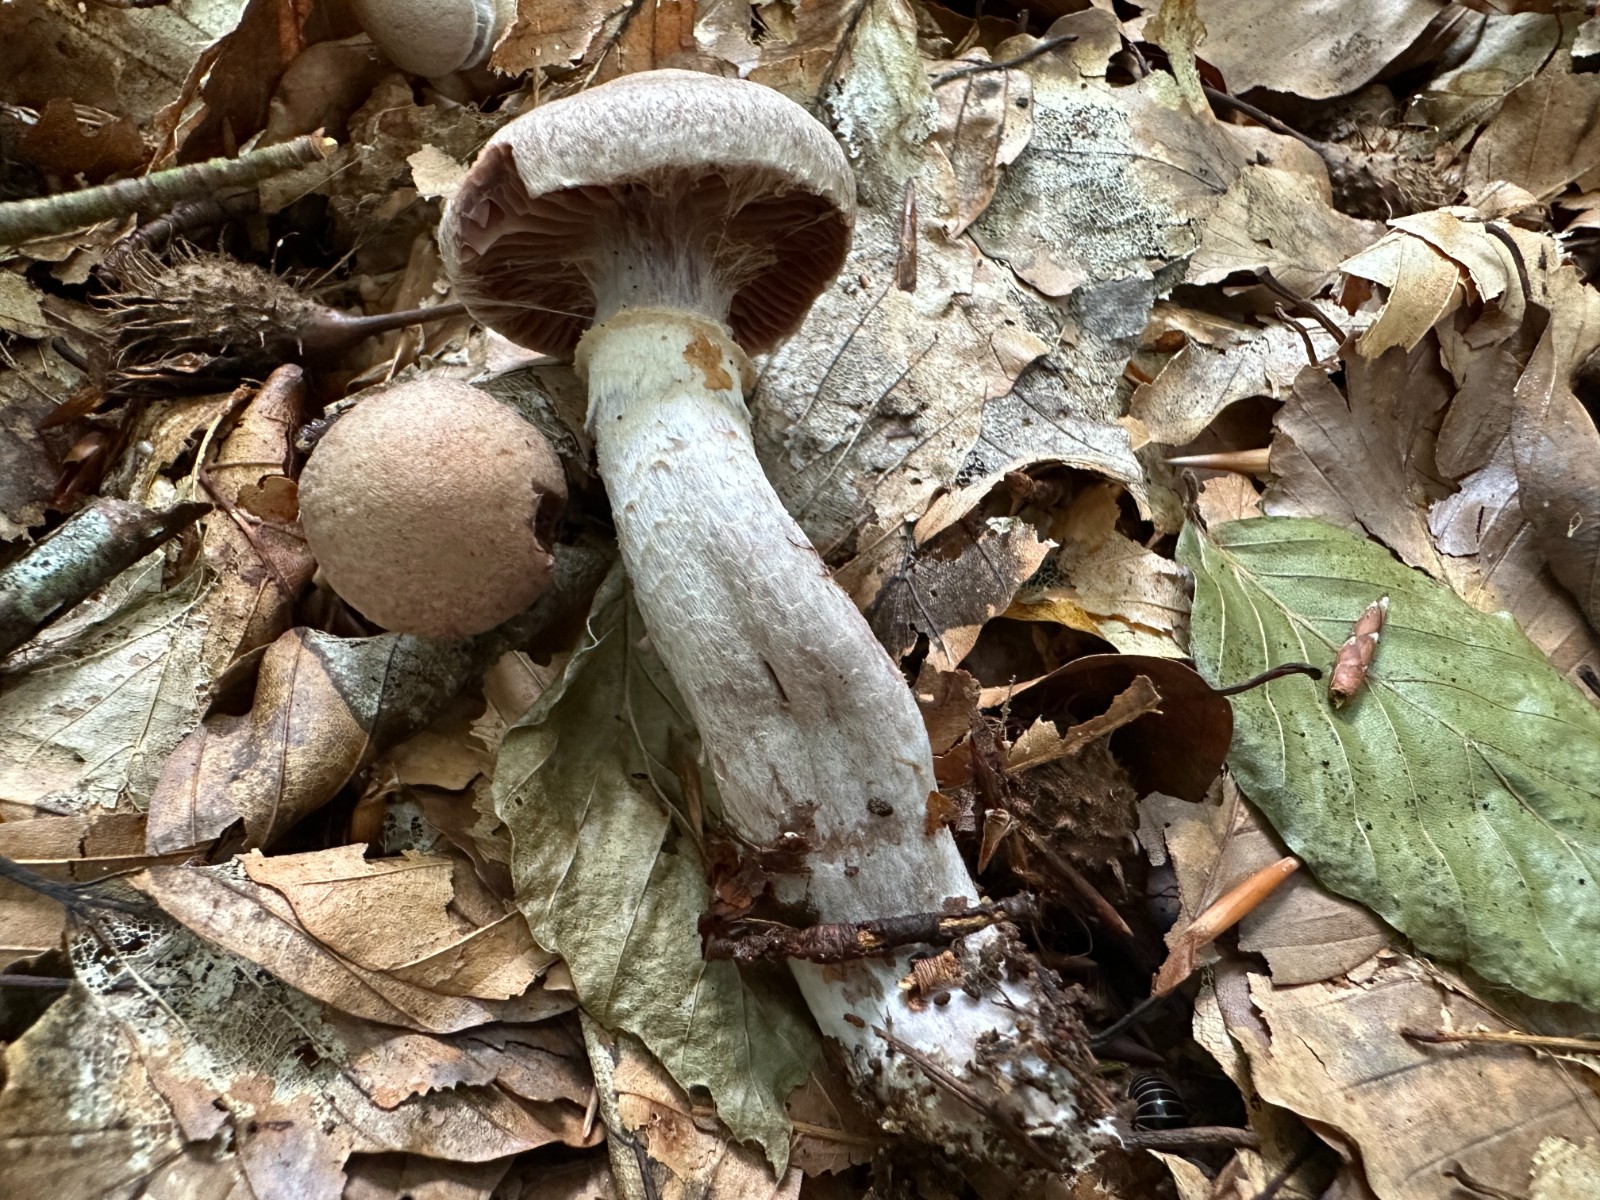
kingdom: Fungi
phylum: Basidiomycota
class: Agaricomycetes
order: Agaricales
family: Cortinariaceae
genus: Cortinarius
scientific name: Cortinarius torvus
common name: champignonagtig slørhat
